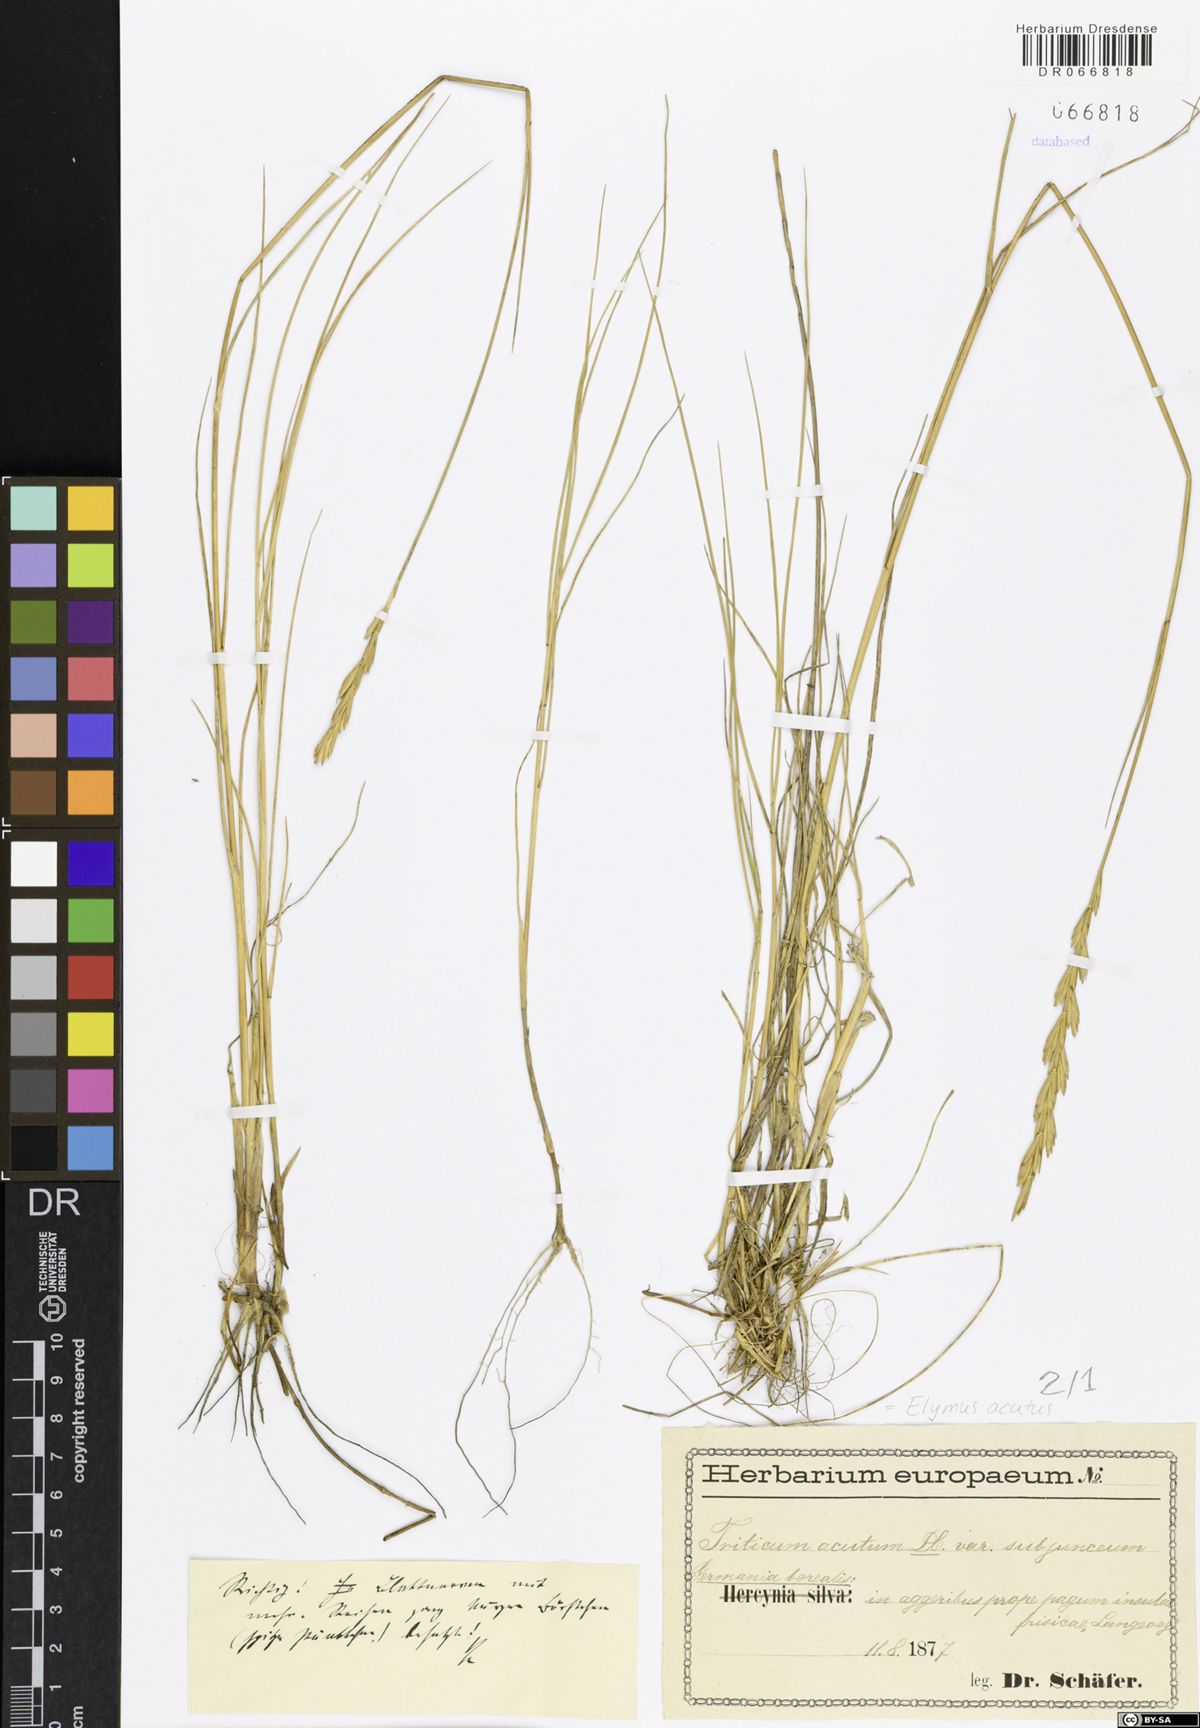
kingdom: Plantae
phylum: Tracheophyta
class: Liliopsida
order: Poales
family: Poaceae
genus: Thinopyrum
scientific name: Thinopyrum acutum
